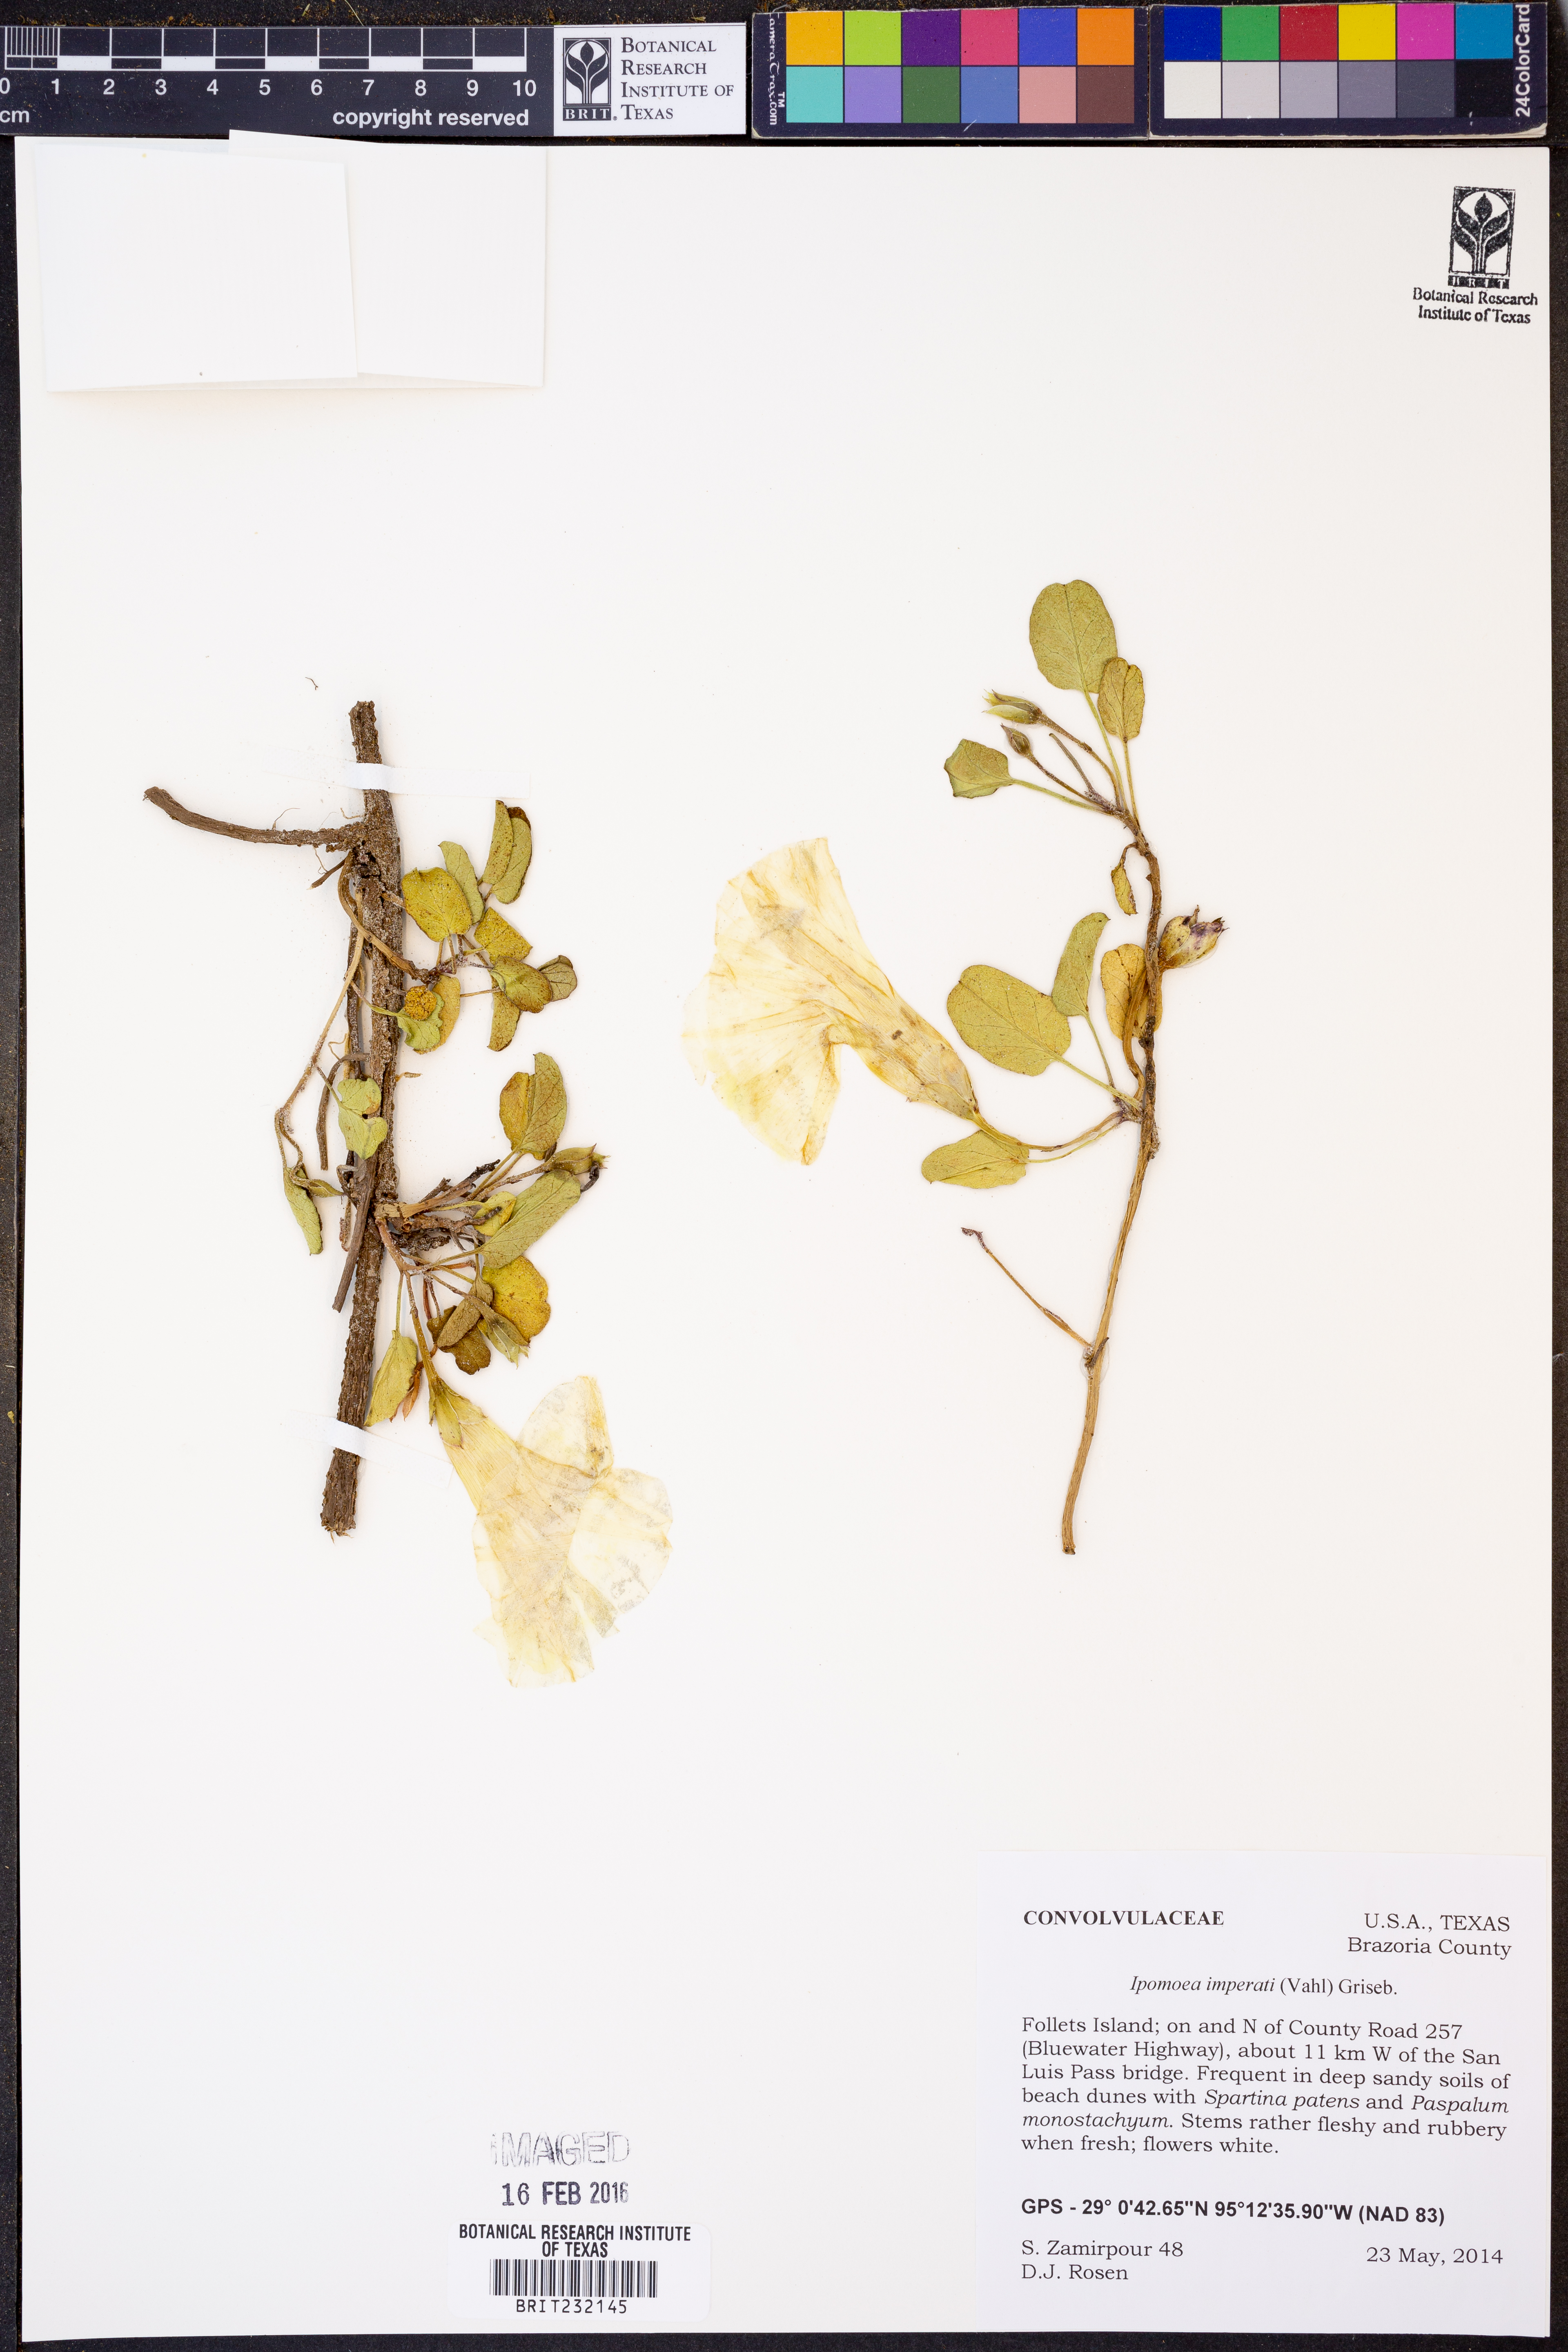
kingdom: Plantae
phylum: Tracheophyta
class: Magnoliopsida
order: Solanales
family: Convolvulaceae
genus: Ipomoea
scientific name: Ipomoea imperati
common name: Fiddle-leaf morning-glory
